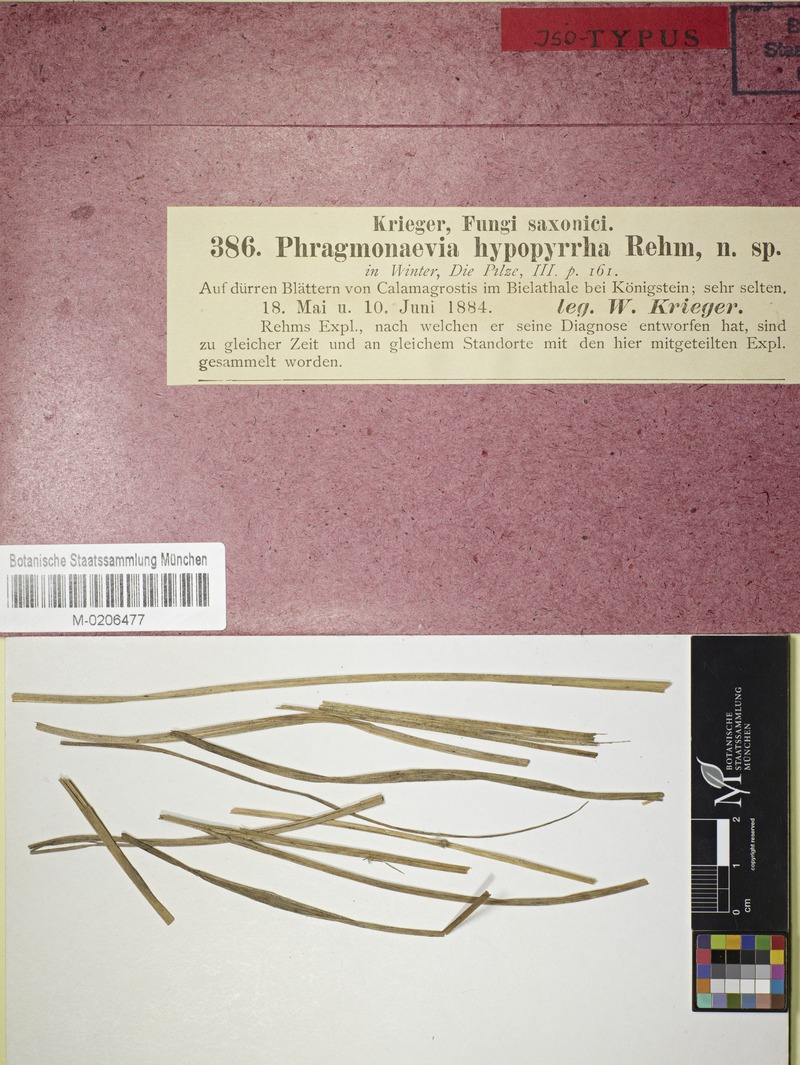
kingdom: Fungi
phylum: Ascomycota
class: Leotiomycetes
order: Helotiales
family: Calloriaceae
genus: Merostictis
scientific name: Merostictis hypopyrrha
